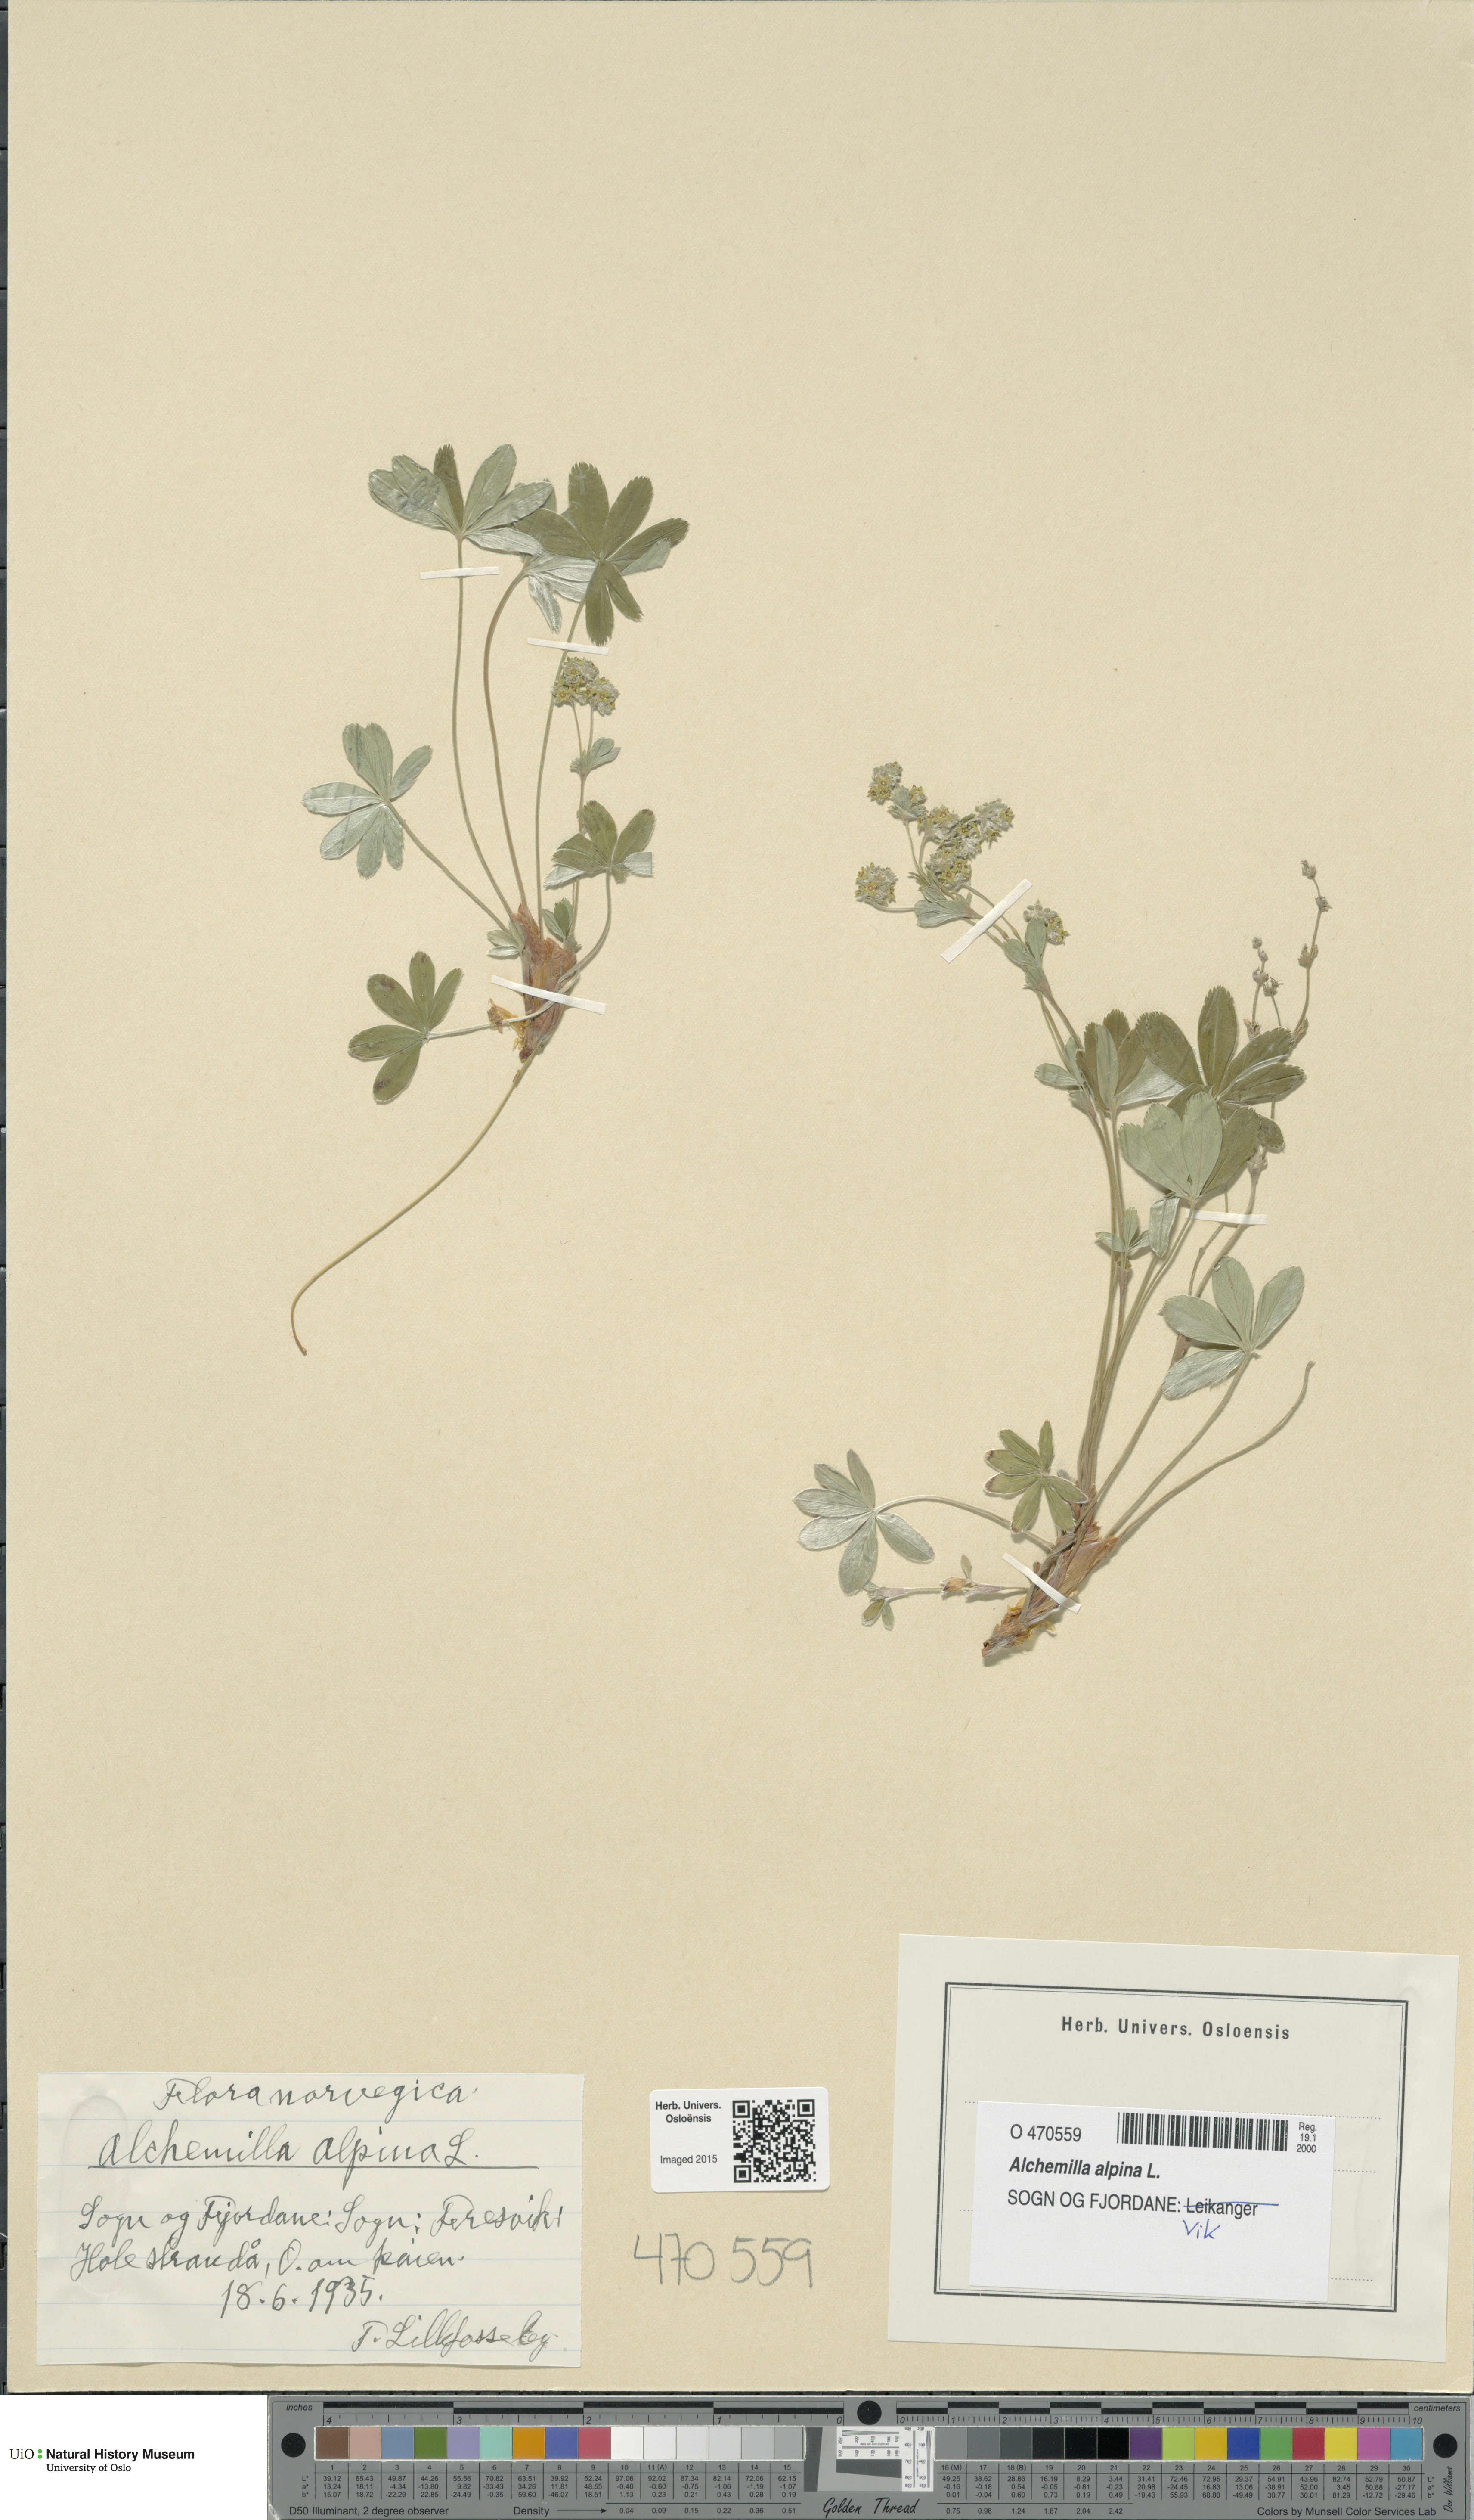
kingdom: Plantae
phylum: Tracheophyta
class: Magnoliopsida
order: Rosales
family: Rosaceae
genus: Alchemilla
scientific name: Alchemilla alpina
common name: Alpine lady's-mantle
